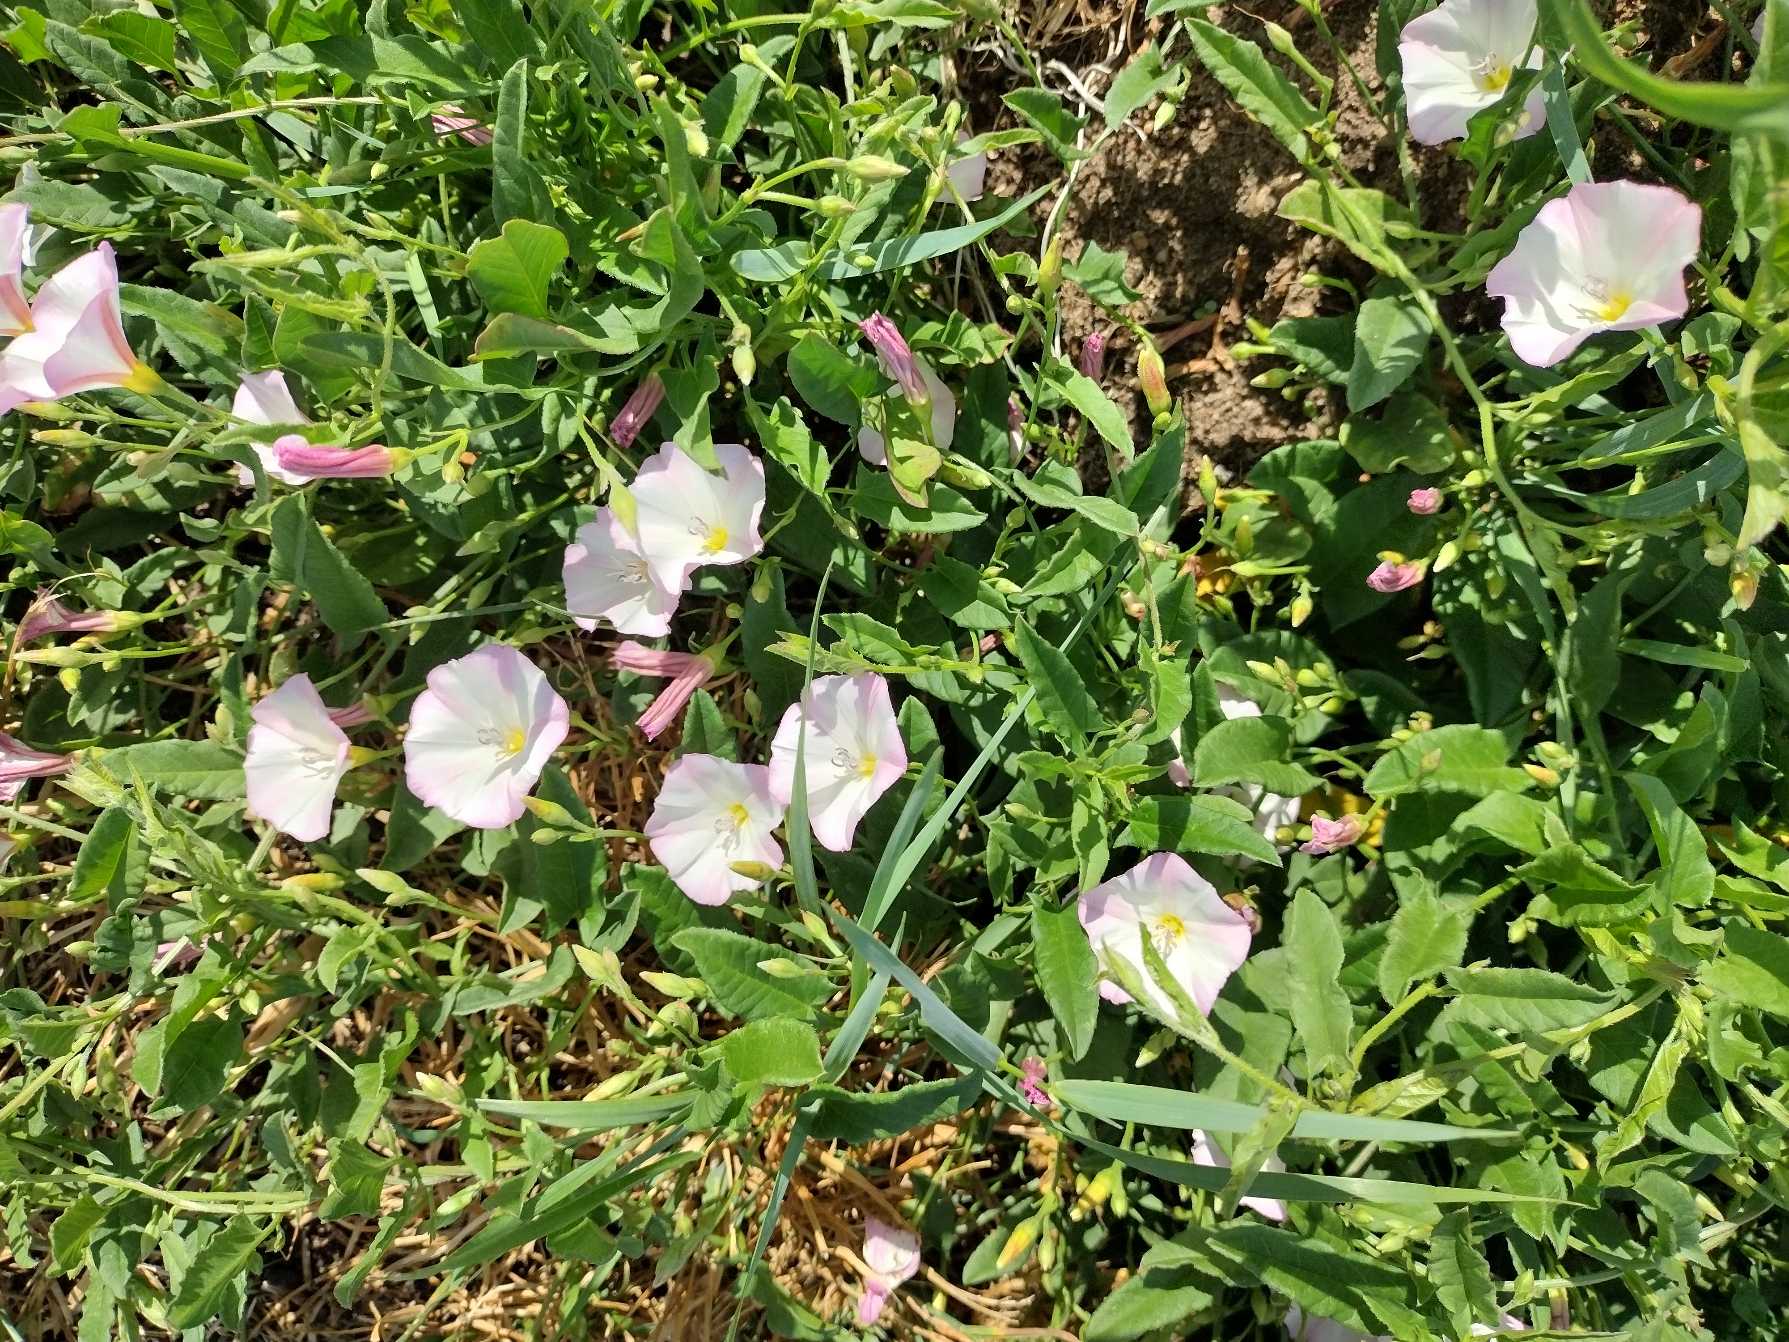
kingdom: Plantae
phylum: Tracheophyta
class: Magnoliopsida
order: Solanales
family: Convolvulaceae
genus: Convolvulus
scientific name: Convolvulus arvensis
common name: Ager-snerle
